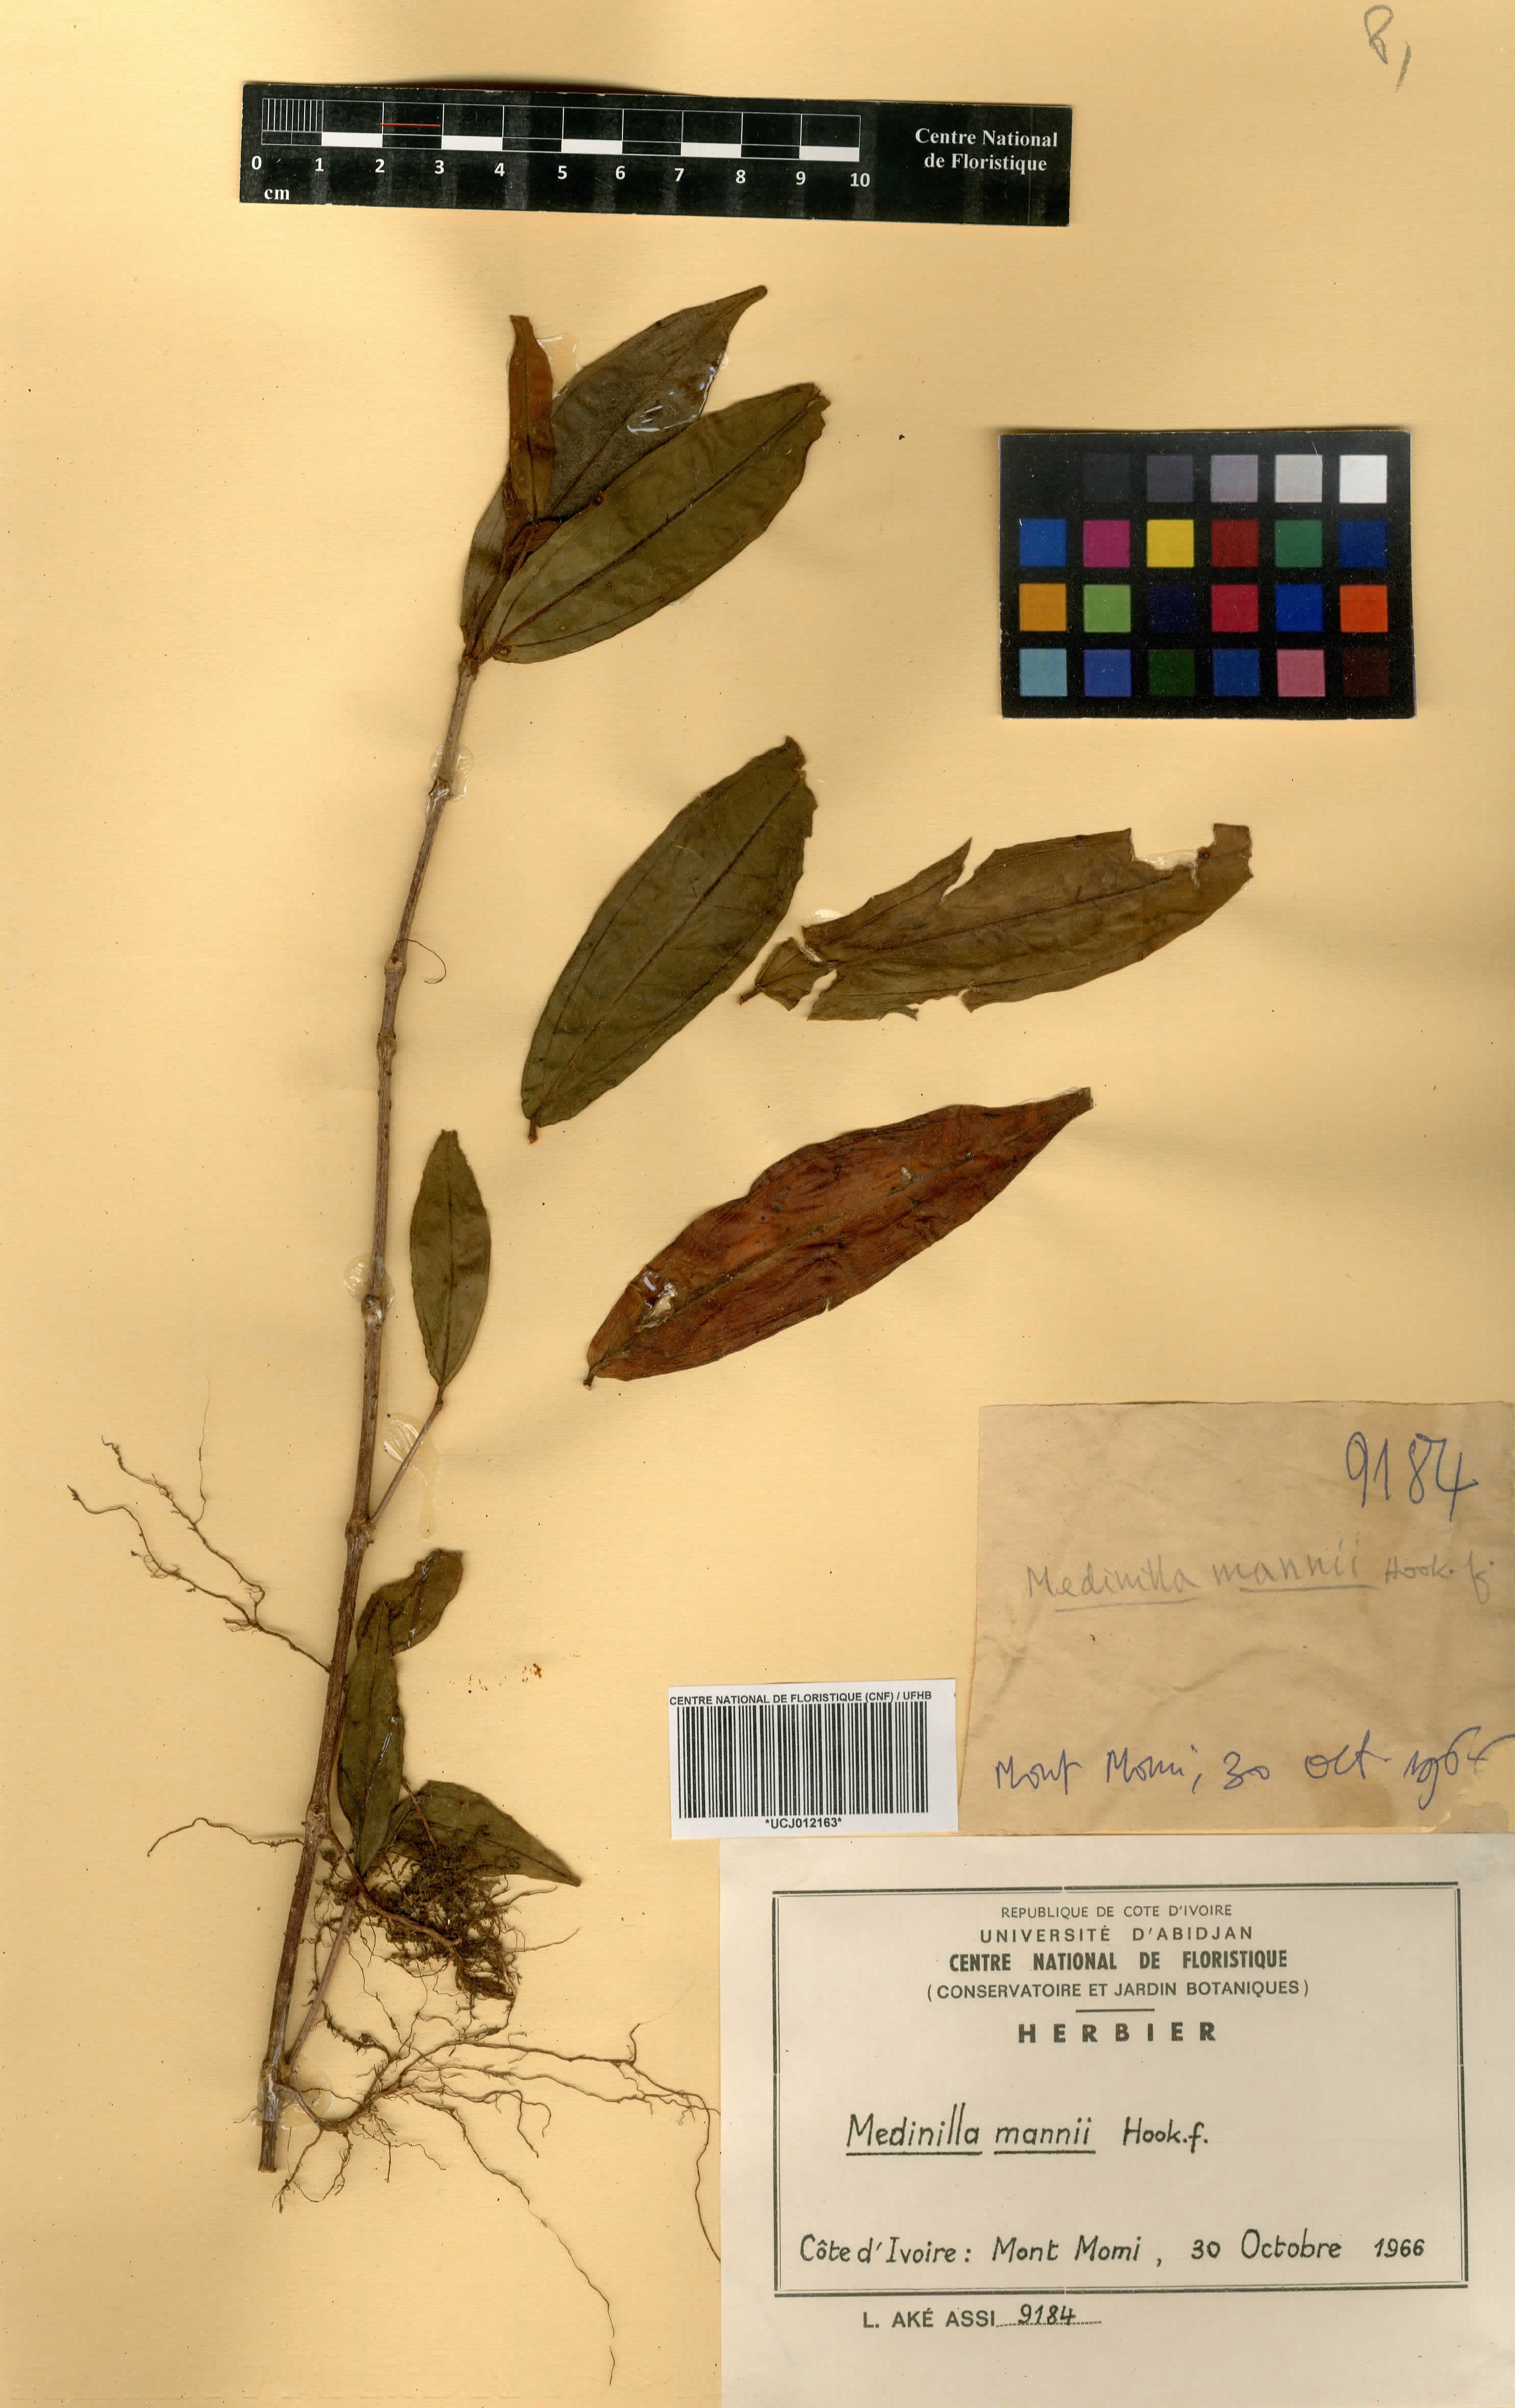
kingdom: Plantae
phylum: Tracheophyta
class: Magnoliopsida
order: Myrtales
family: Melastomataceae
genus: Medinilla
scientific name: Medinilla mannii
